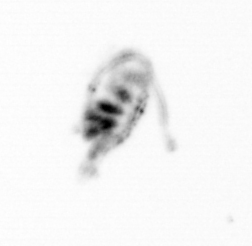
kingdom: Animalia
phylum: Arthropoda
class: Copepoda
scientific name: Copepoda
